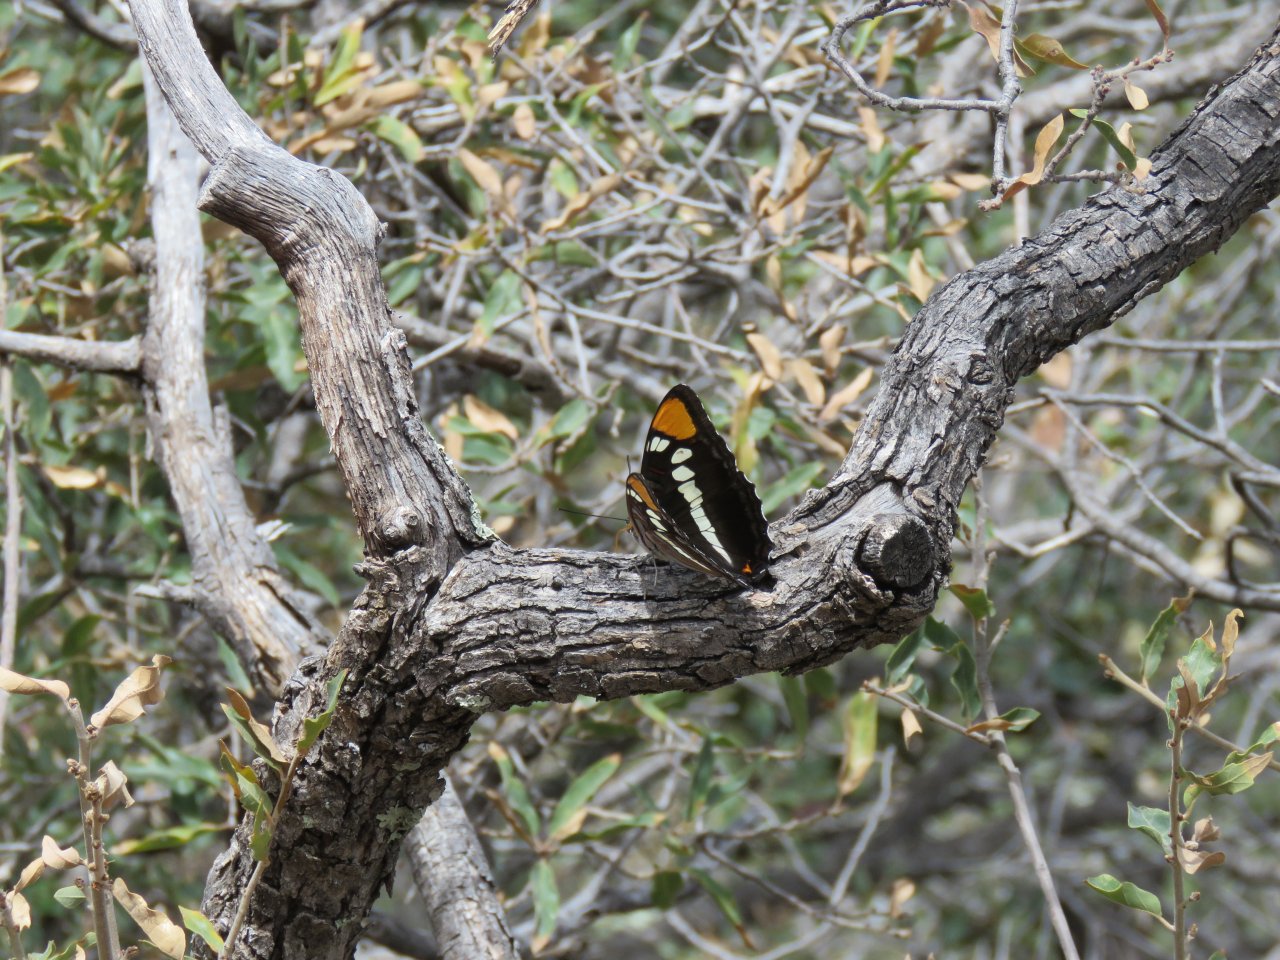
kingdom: Animalia
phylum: Arthropoda
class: Insecta
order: Lepidoptera
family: Nymphalidae
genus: Limenitis
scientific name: Limenitis bredowii
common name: Arizona Sister
